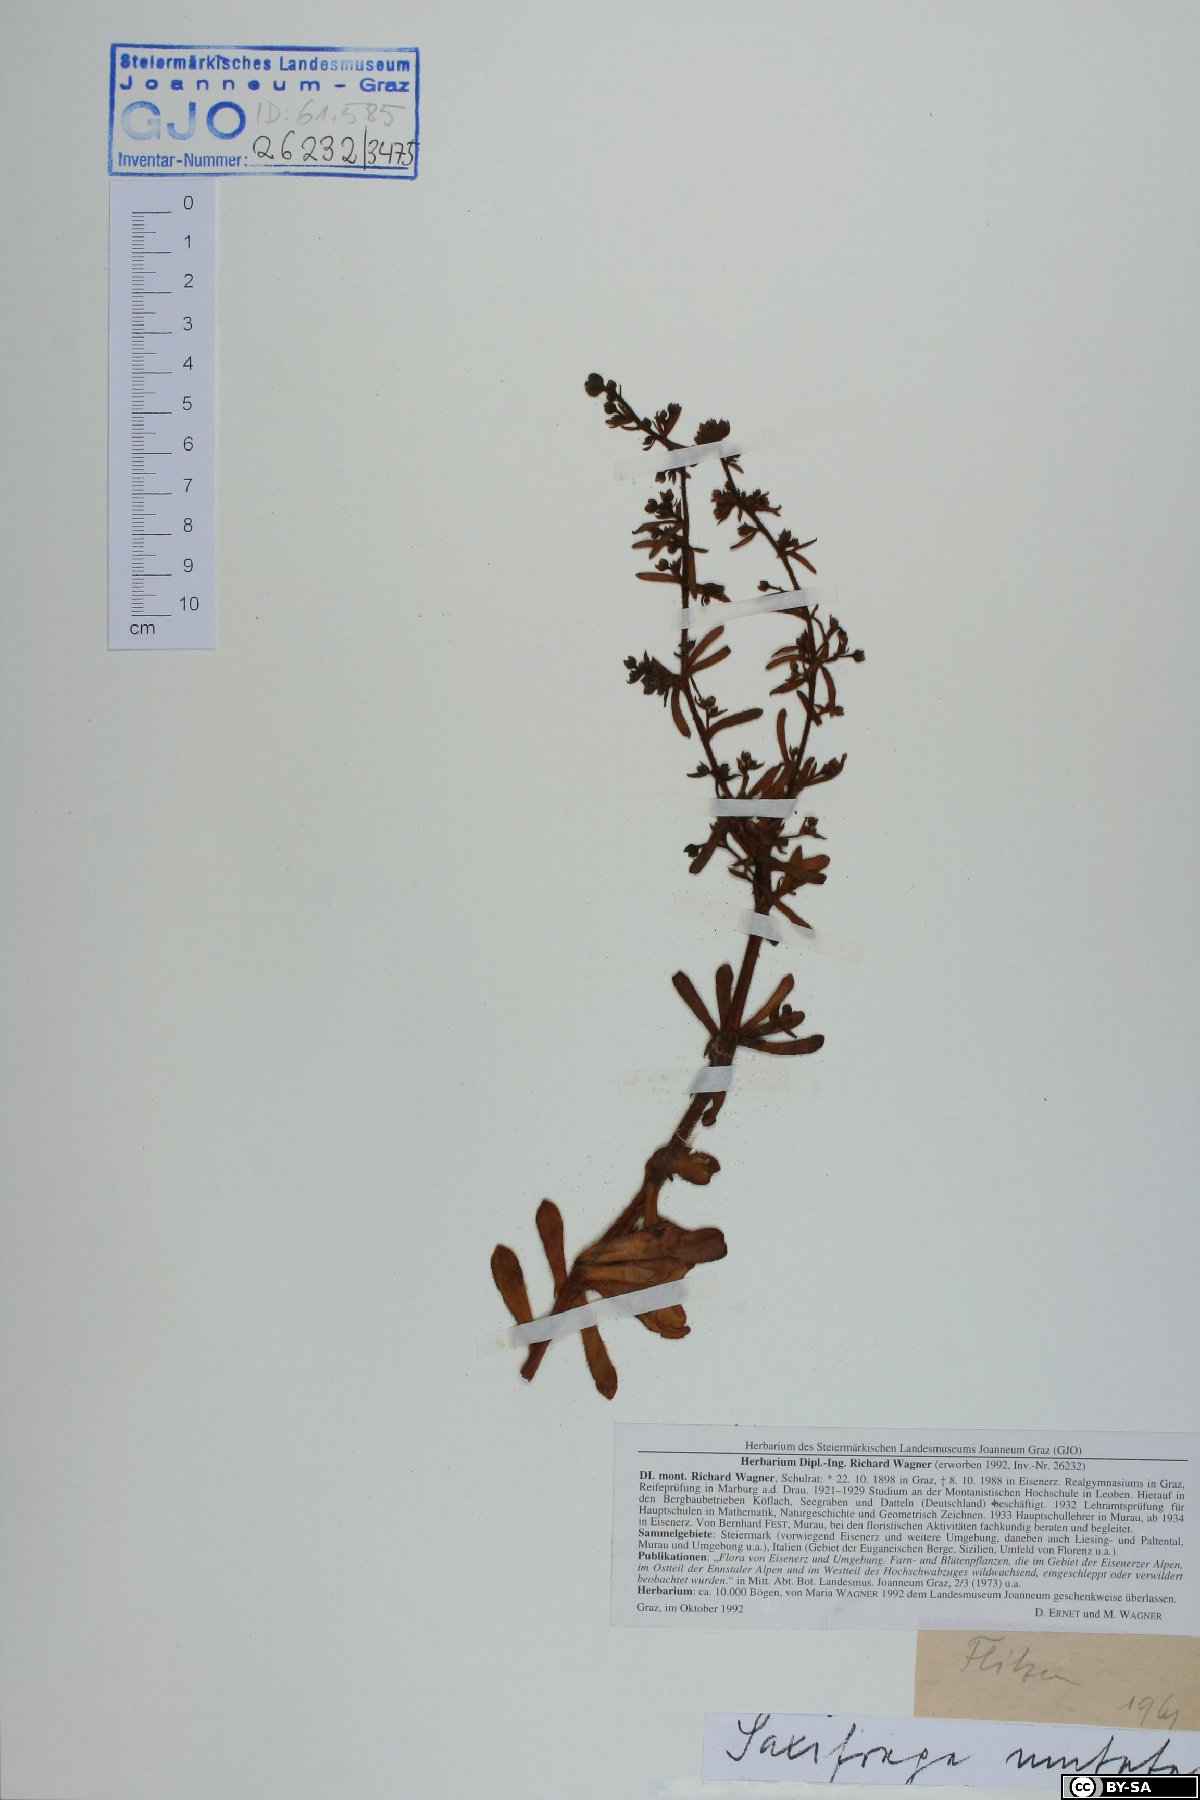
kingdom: Plantae
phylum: Tracheophyta
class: Magnoliopsida
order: Saxifragales
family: Saxifragaceae
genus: Saxifraga
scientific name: Saxifraga mutata
